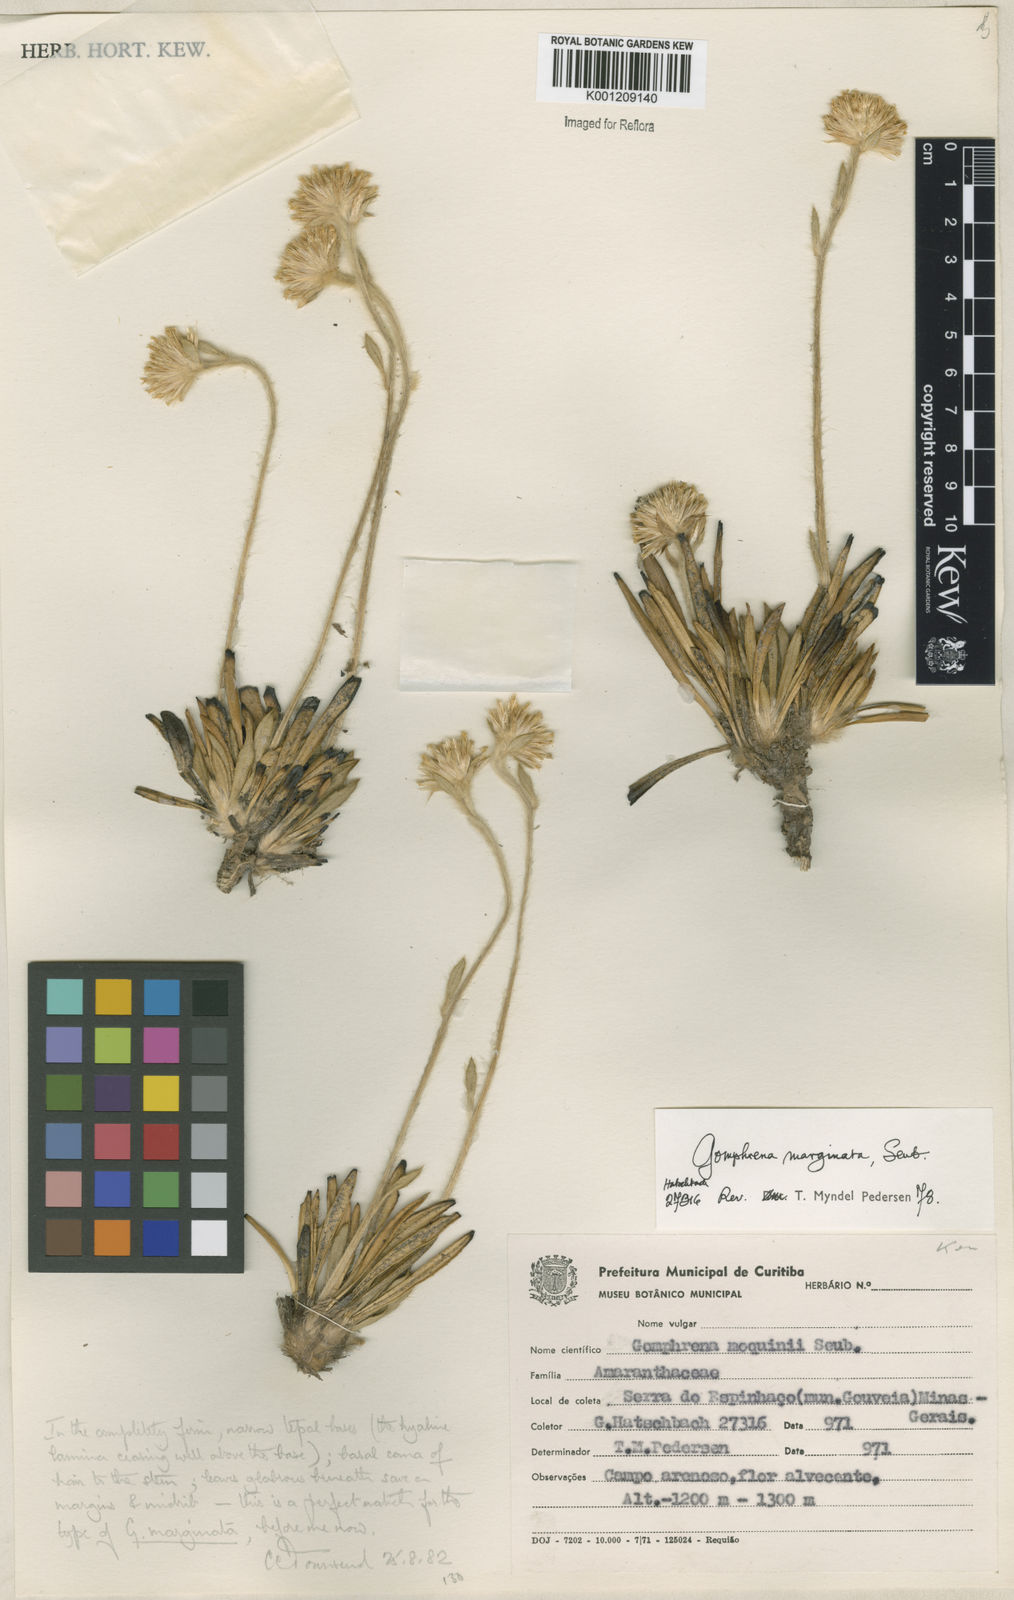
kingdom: Plantae
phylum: Tracheophyta
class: Magnoliopsida
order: Caryophyllales
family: Amaranthaceae
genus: Gomphrena
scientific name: Gomphrena marginata
